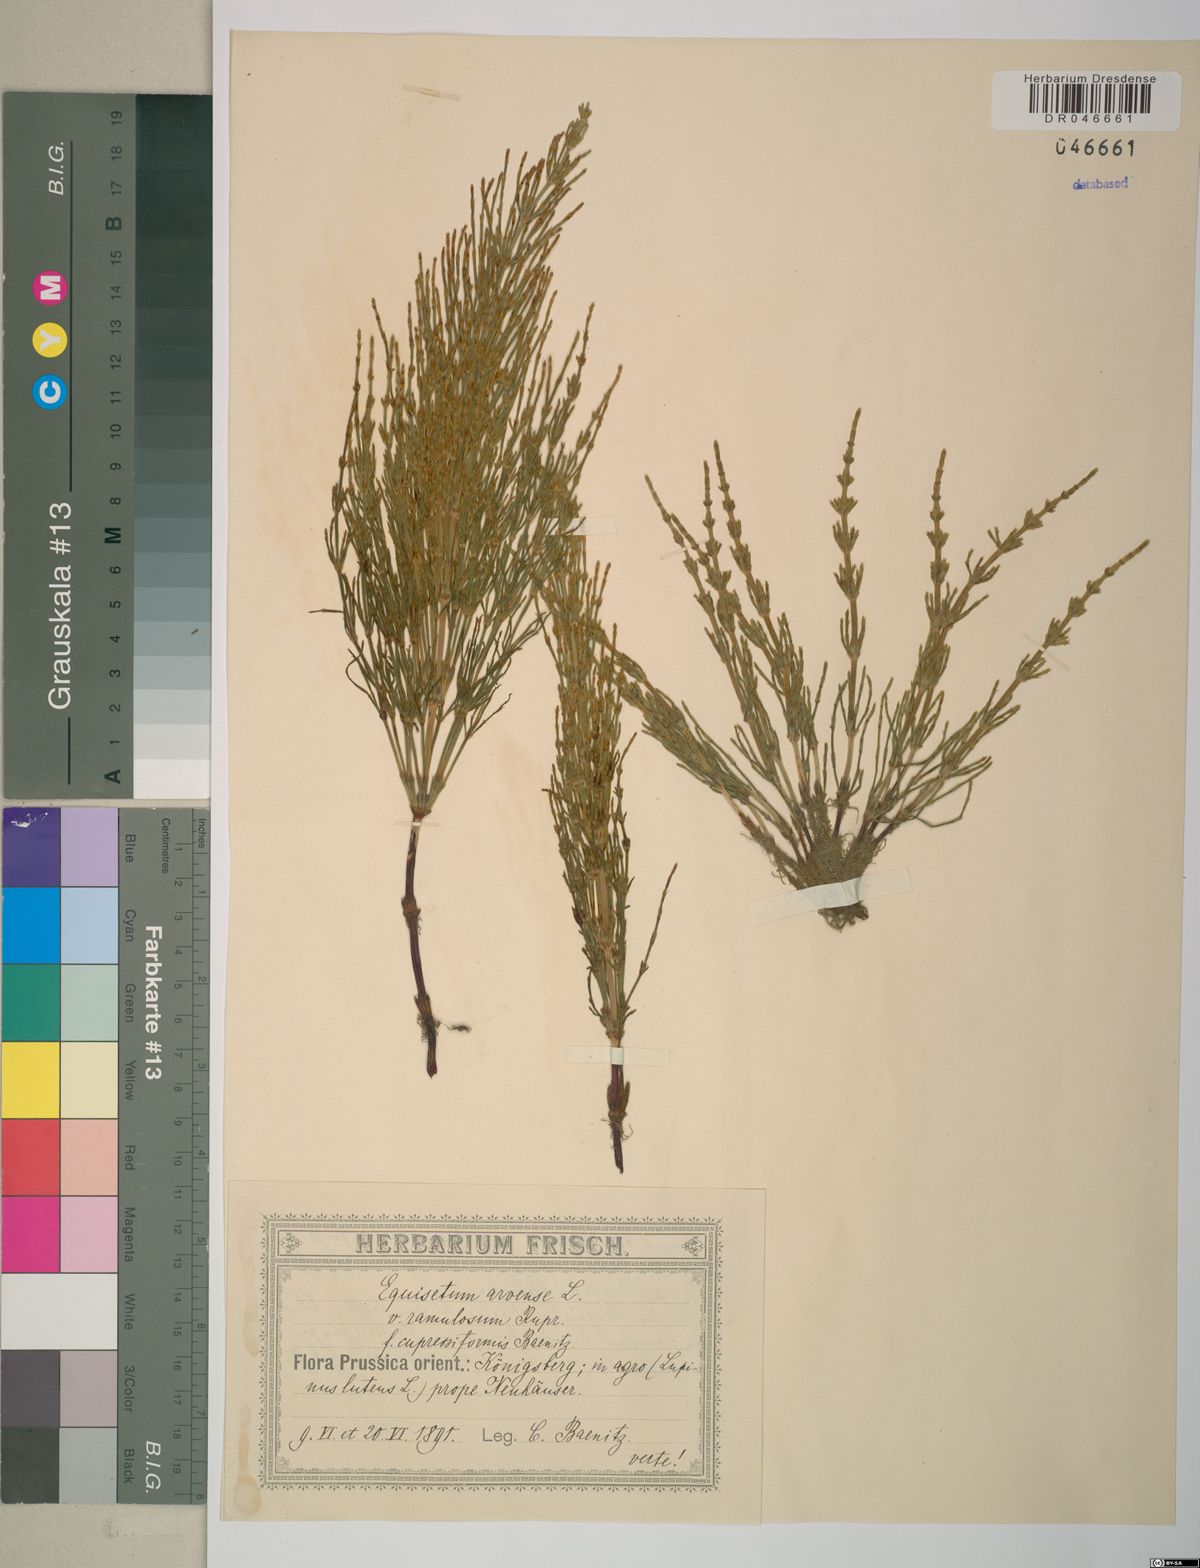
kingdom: Plantae
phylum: Tracheophyta
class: Polypodiopsida
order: Equisetales
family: Equisetaceae
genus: Equisetum
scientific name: Equisetum arvense
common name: Field horsetail
